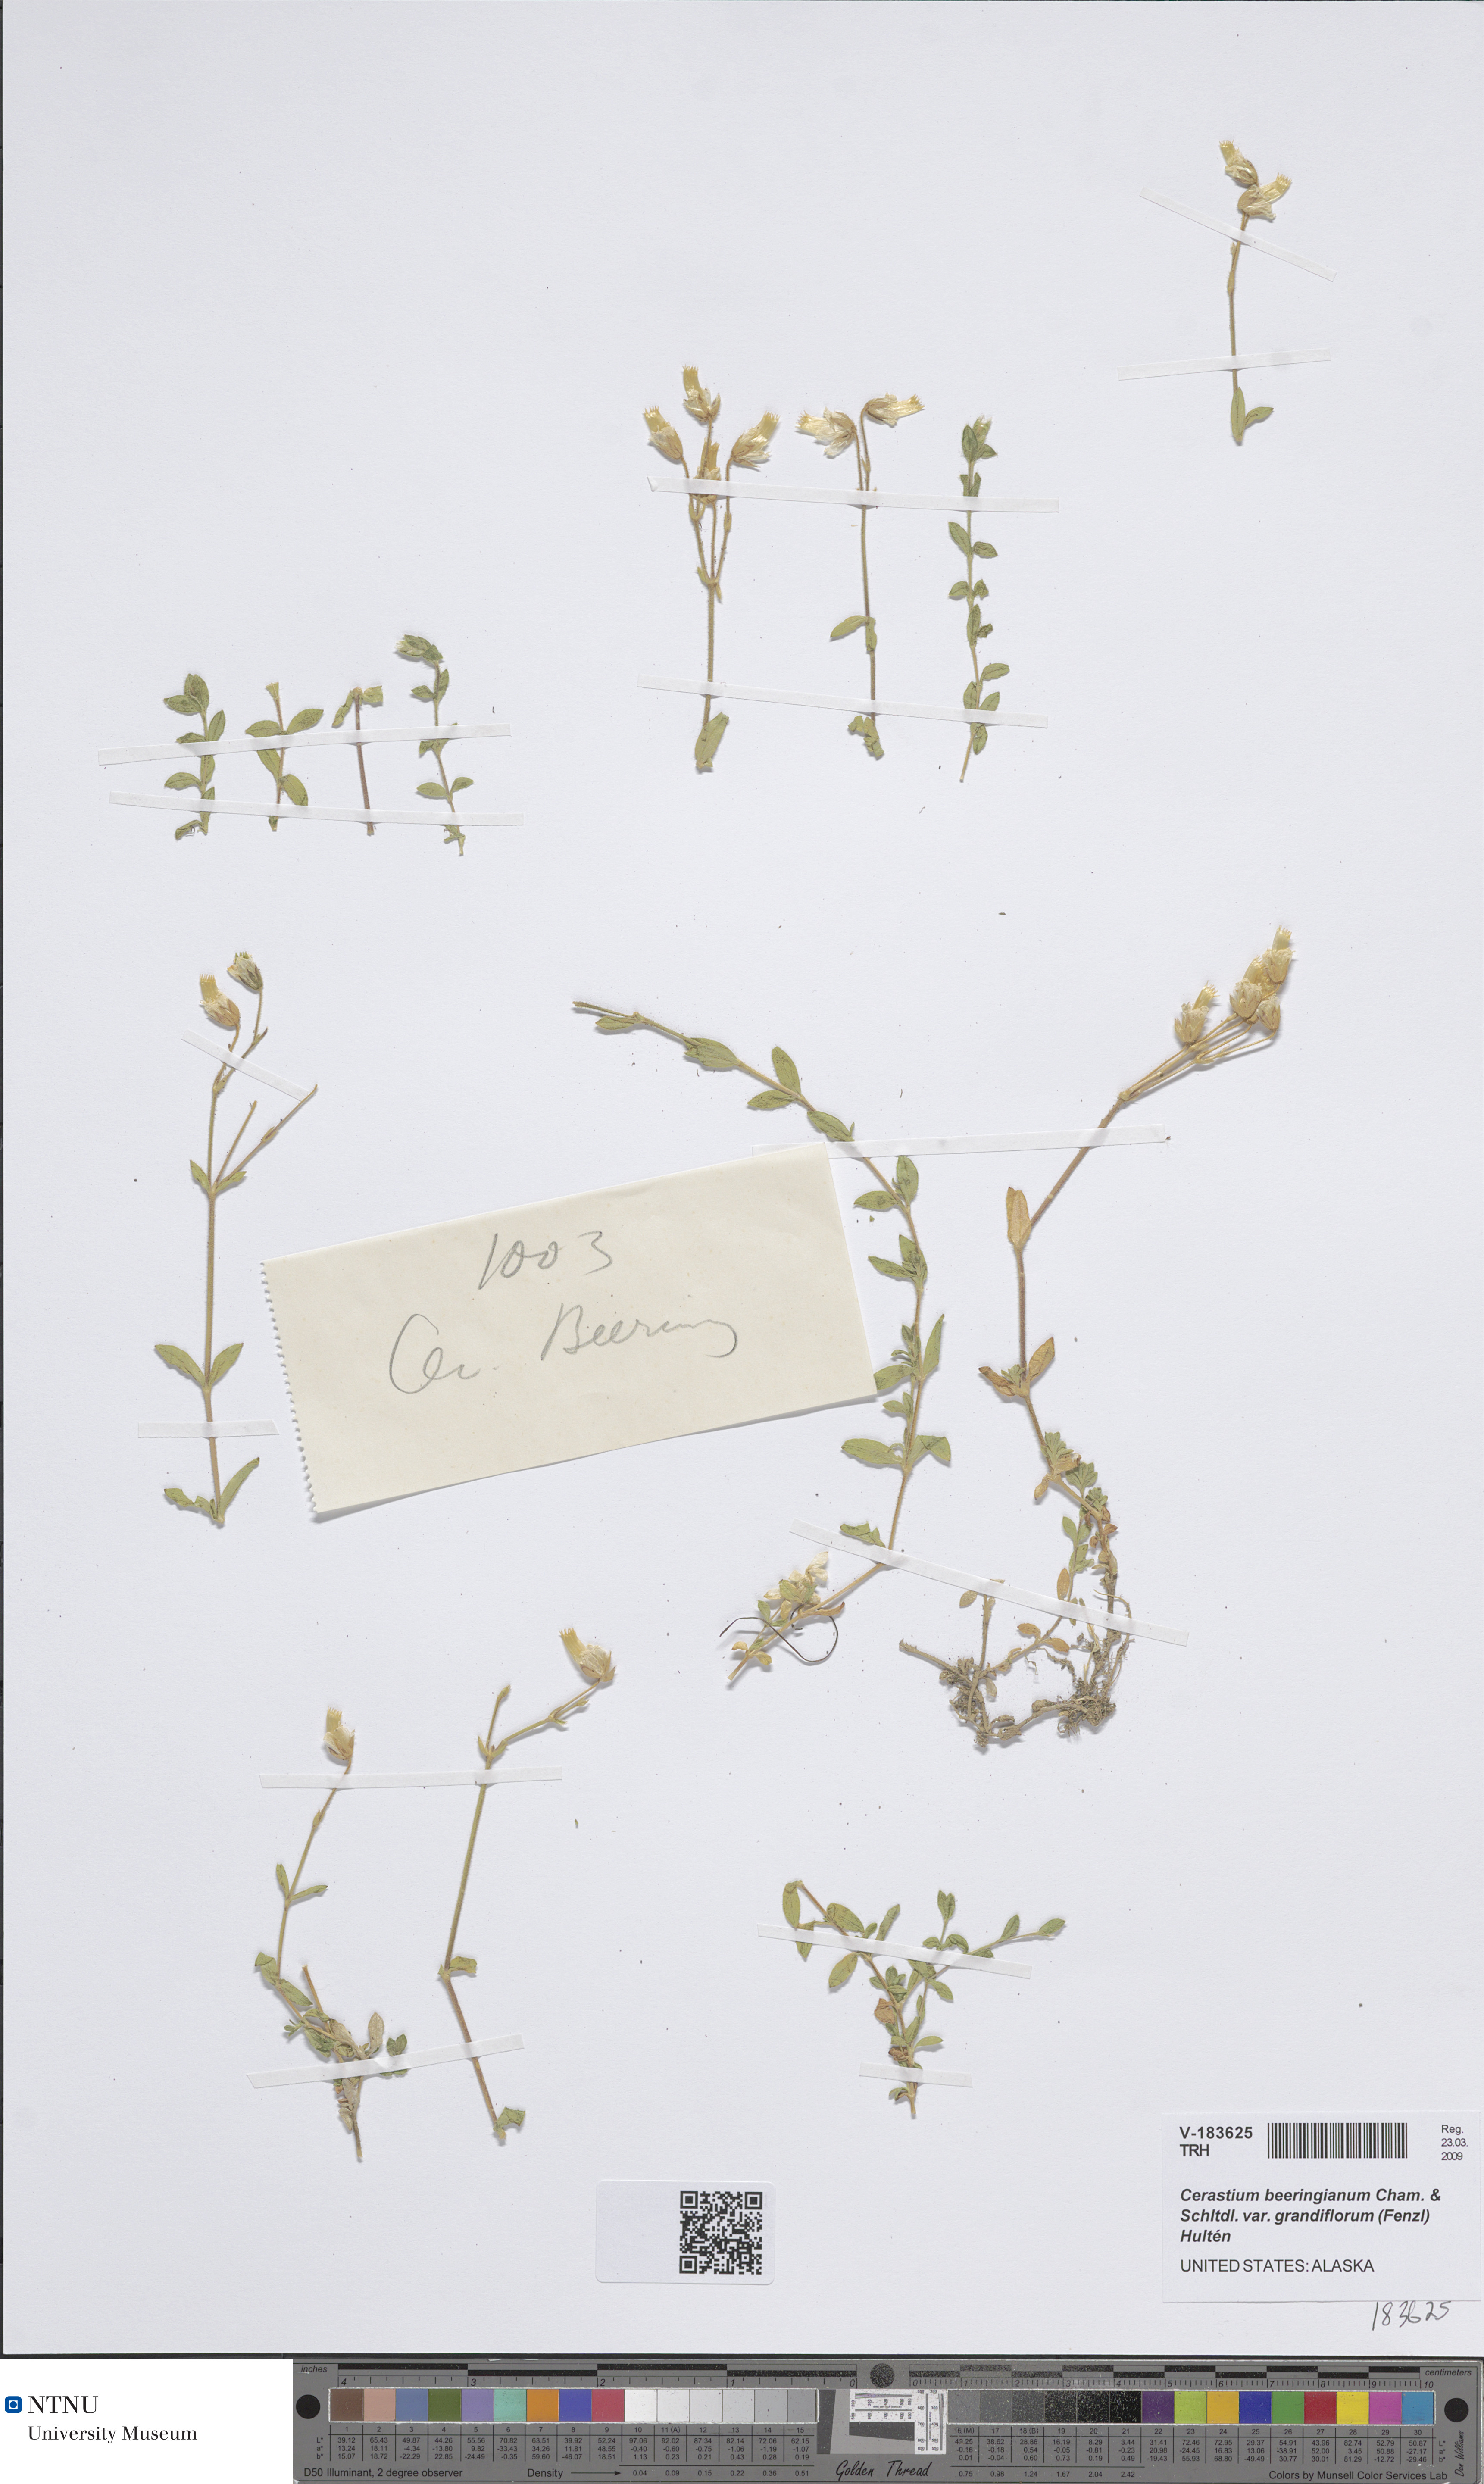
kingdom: Plantae
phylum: Tracheophyta
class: Magnoliopsida
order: Caryophyllales
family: Caryophyllaceae
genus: Cerastium
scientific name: Cerastium beeringianum
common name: Bering mouse-ear chickweed
